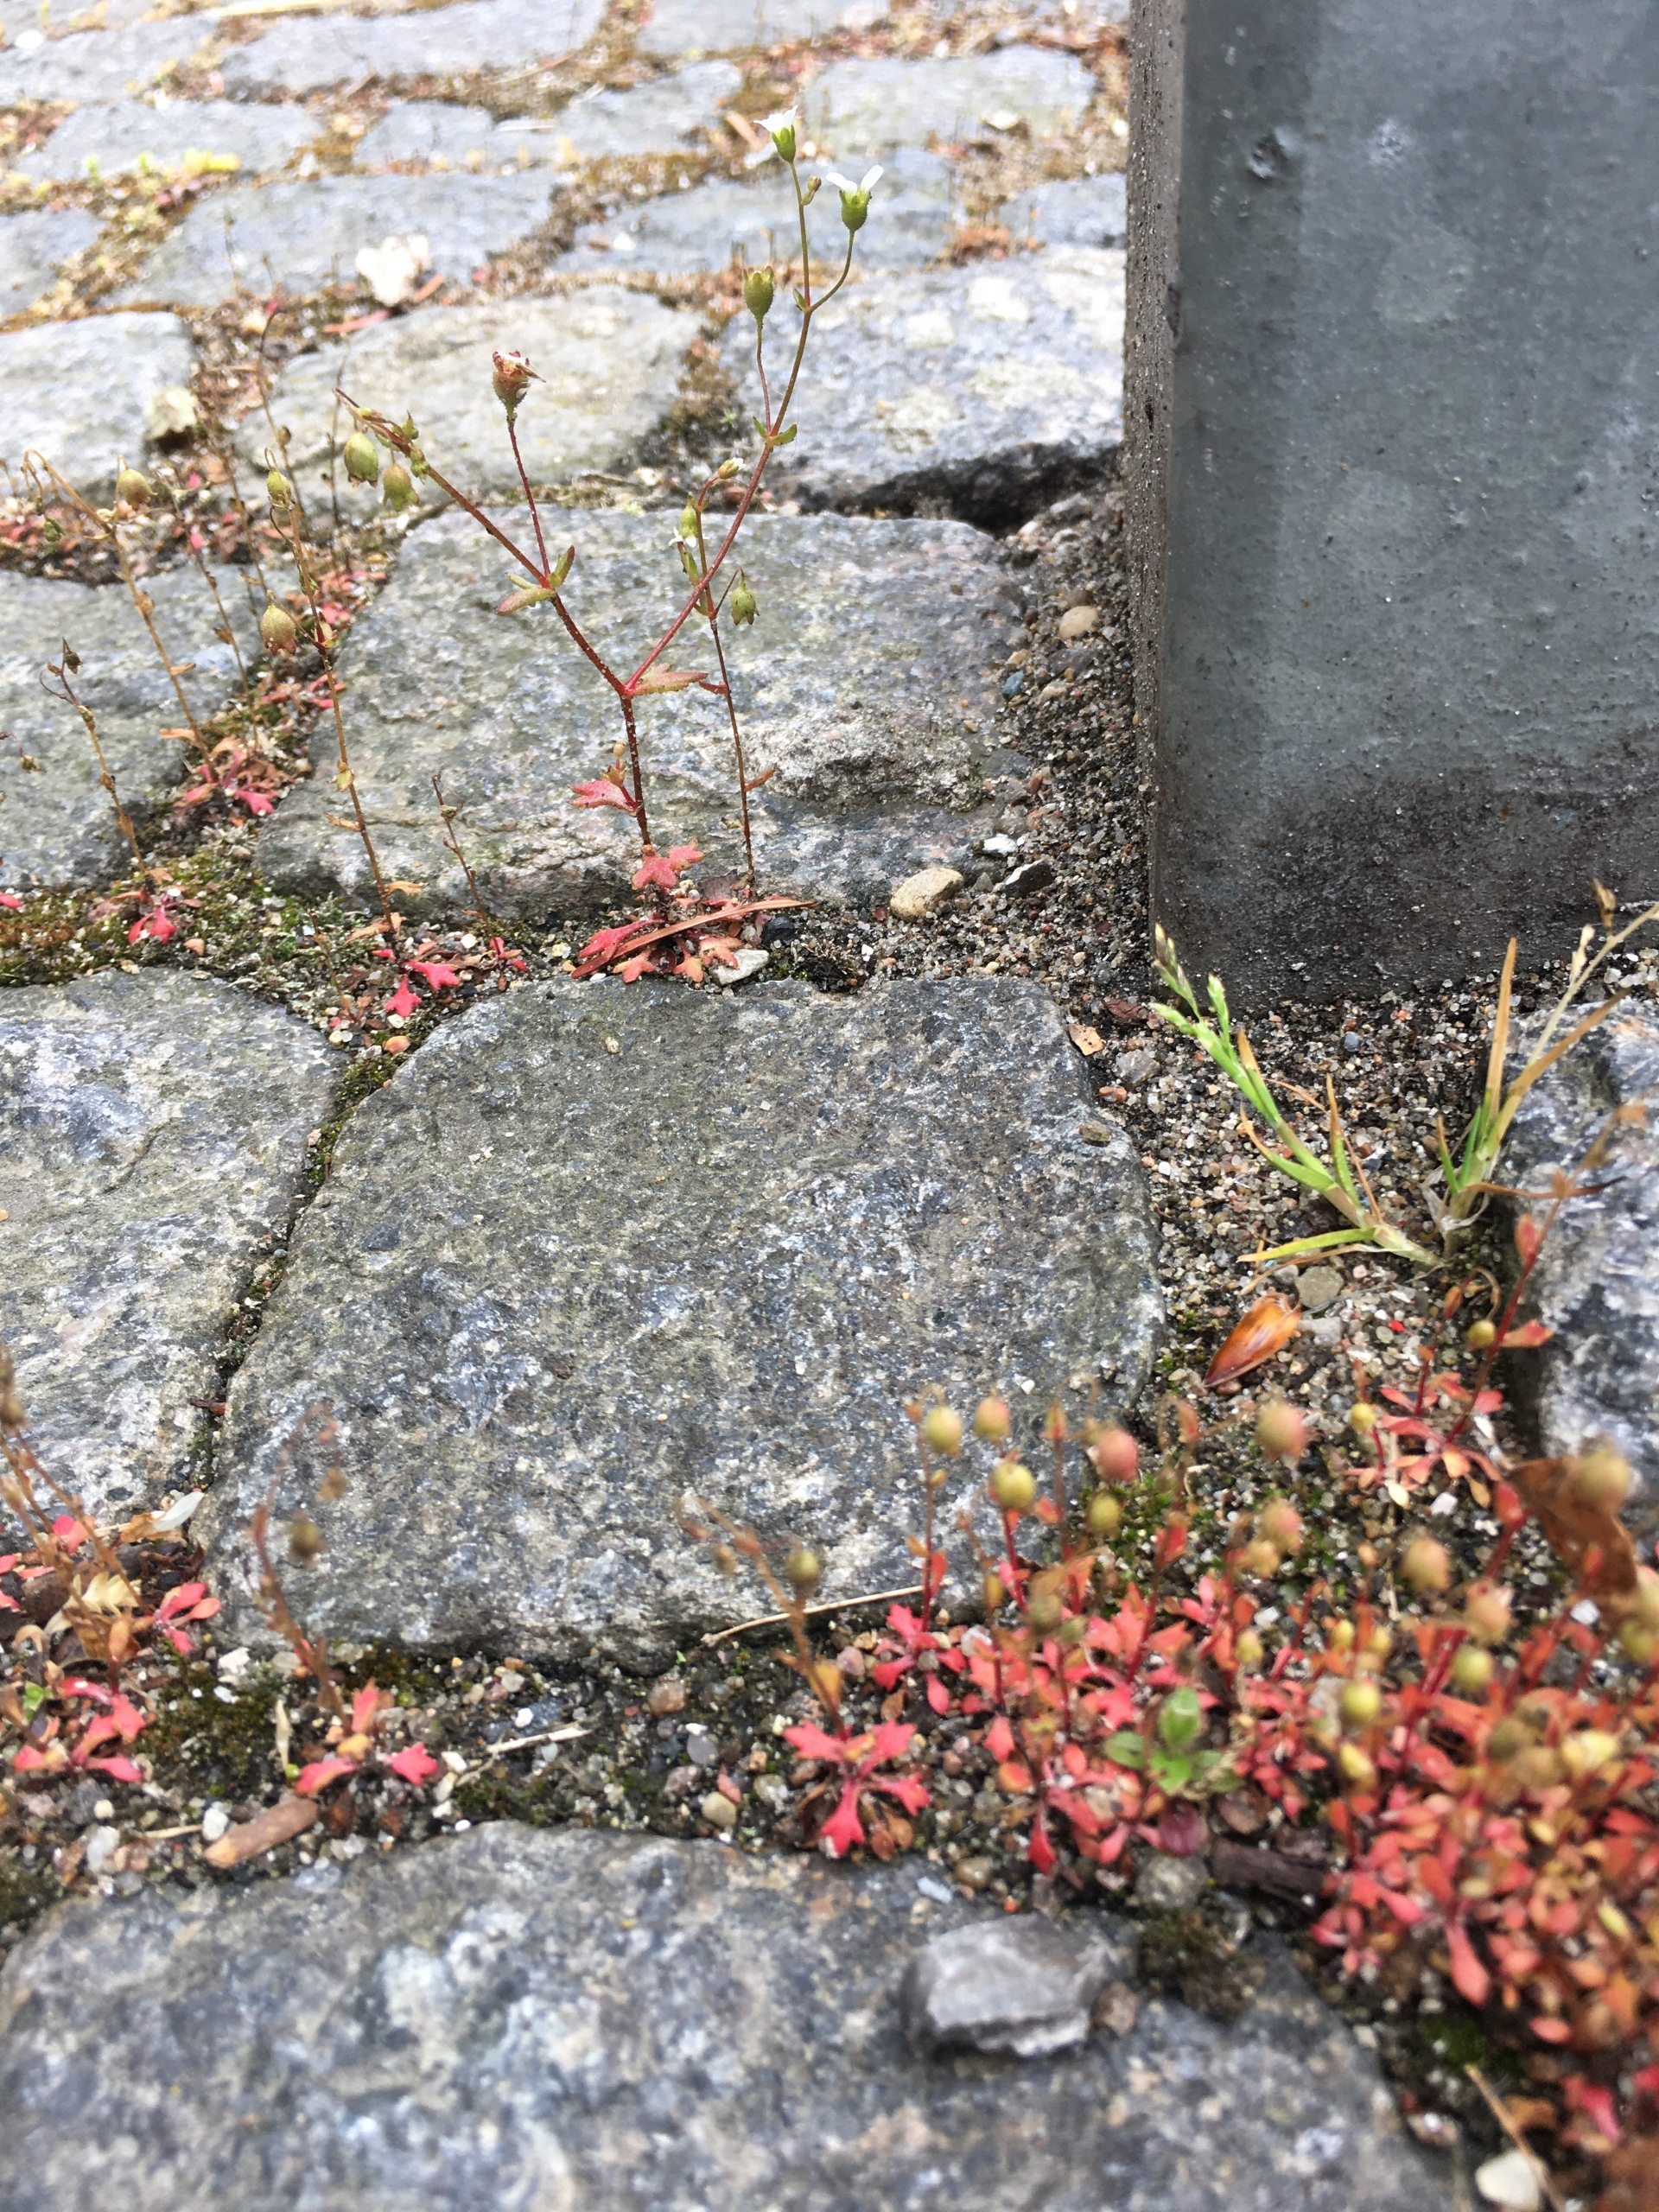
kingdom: Plantae
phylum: Tracheophyta
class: Magnoliopsida
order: Saxifragales
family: Saxifragaceae
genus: Saxifraga
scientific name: Saxifraga tridactylites
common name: Trekløft-stenbræk
